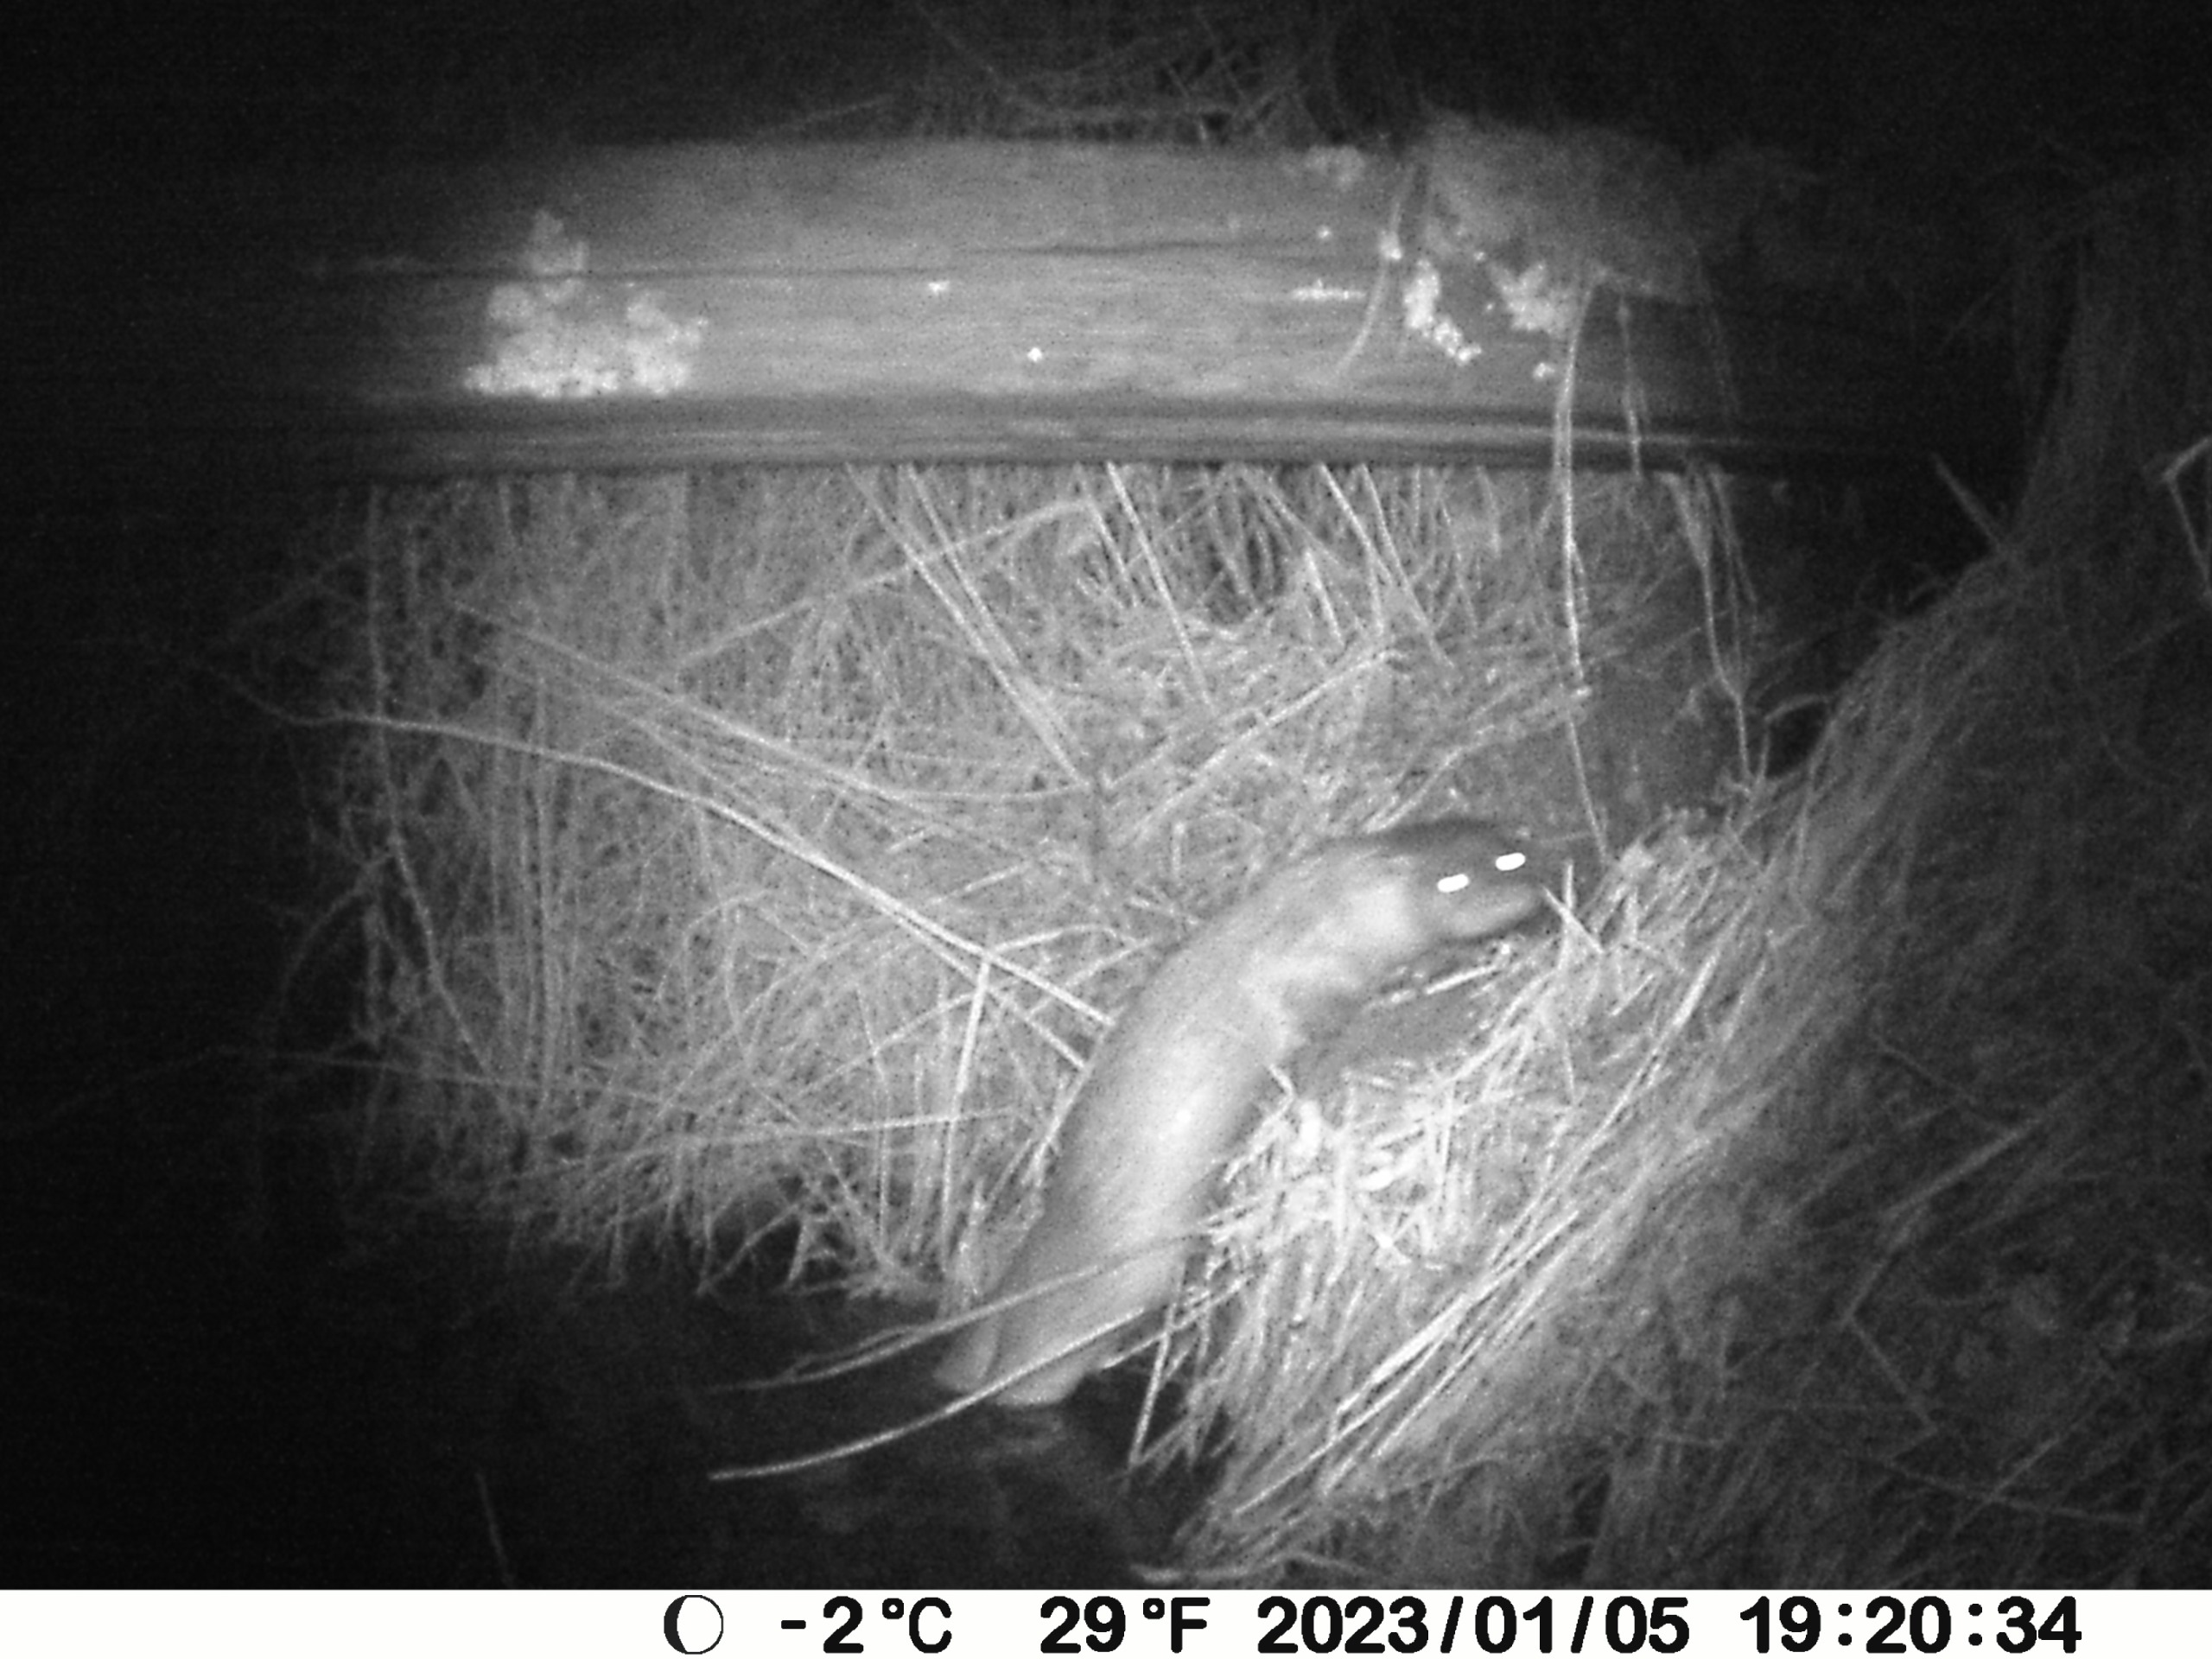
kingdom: Animalia
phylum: Chordata
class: Mammalia
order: Carnivora
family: Mustelidae
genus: Lutra
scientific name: Lutra lutra
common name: Odder
